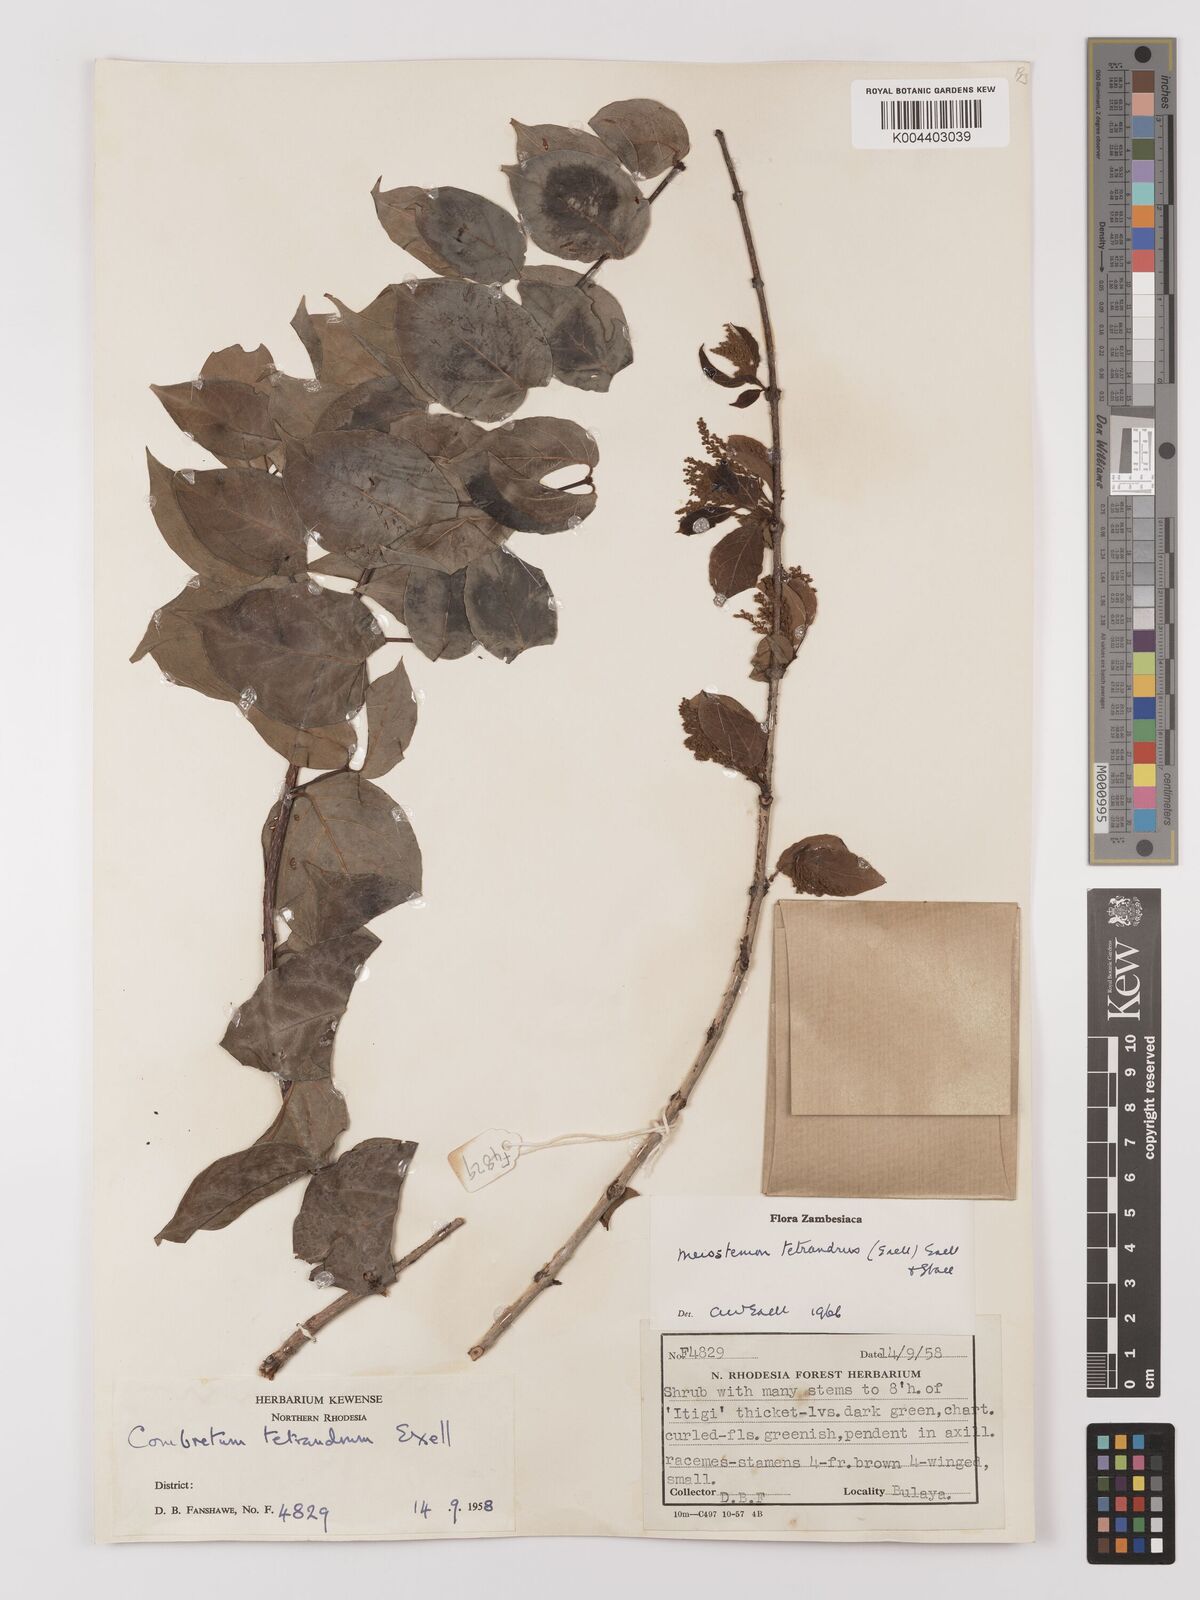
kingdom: Plantae
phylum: Tracheophyta
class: Magnoliopsida
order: Myrtales
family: Combretaceae
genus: Combretum
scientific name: Combretum tetrandrum
